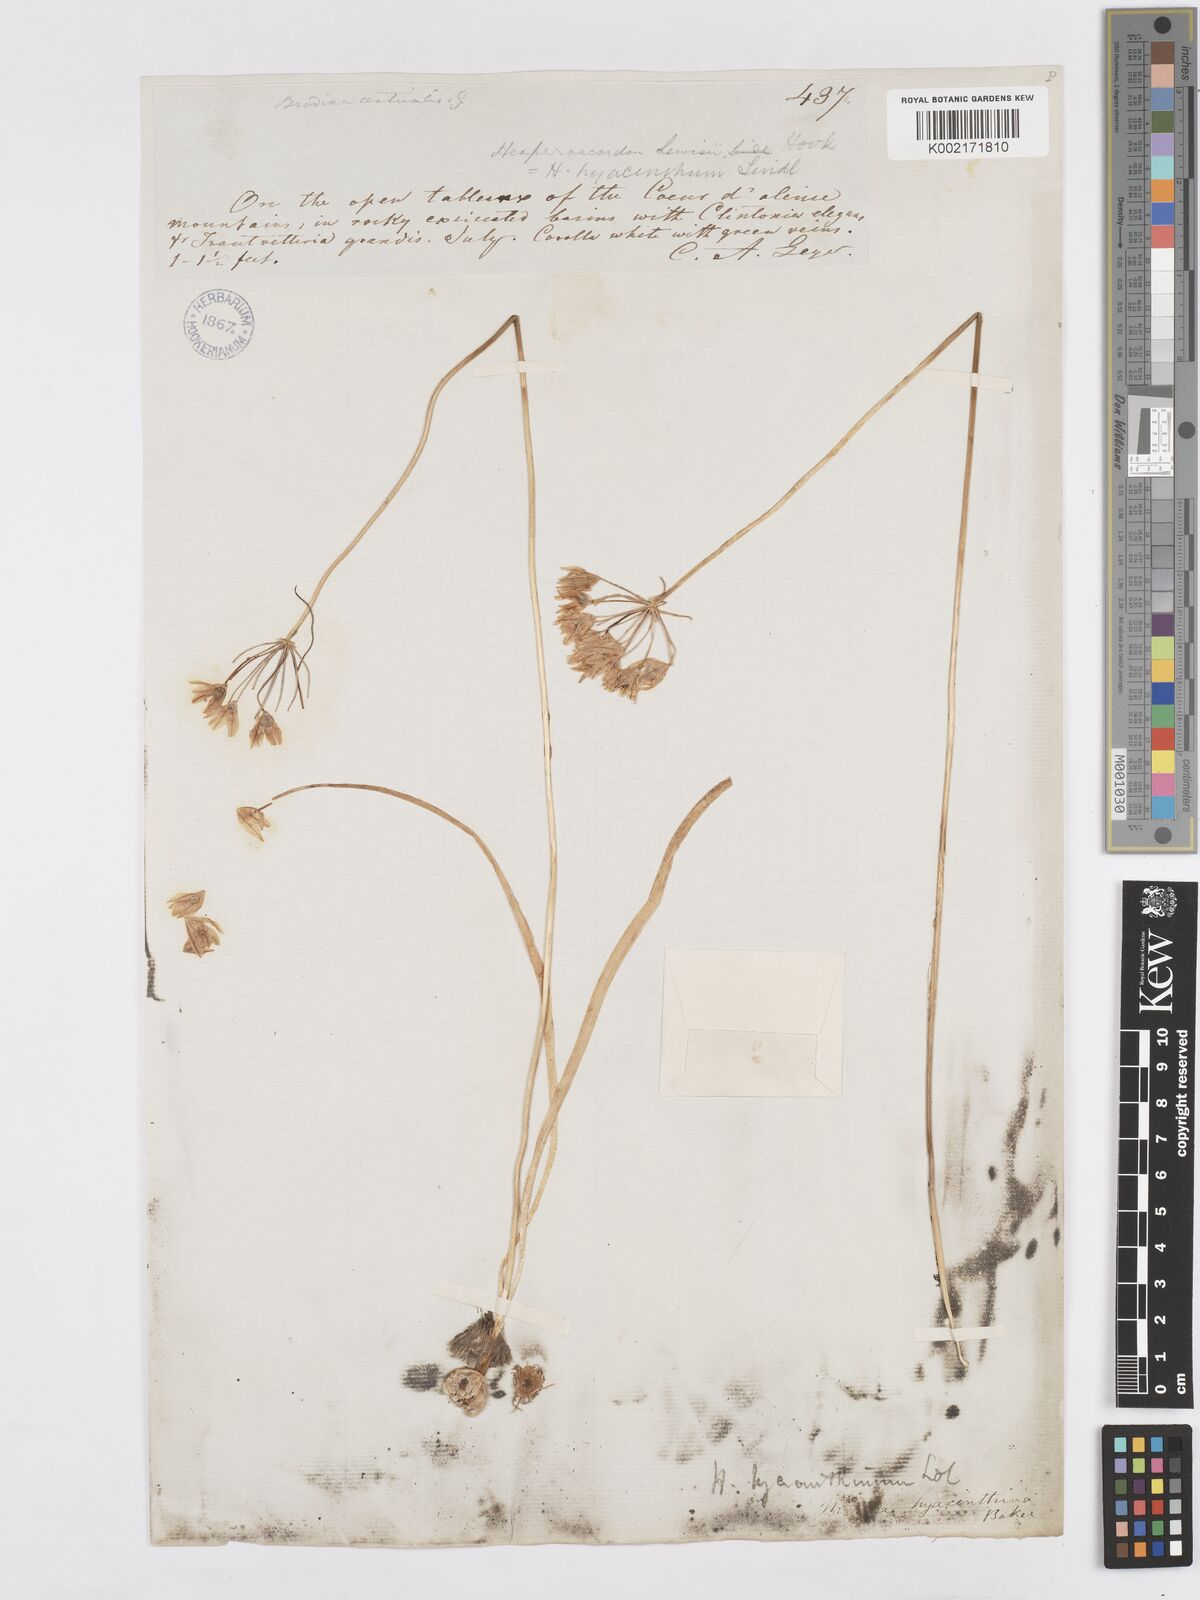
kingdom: Plantae
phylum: Tracheophyta
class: Liliopsida
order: Asparagales
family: Asparagaceae
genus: Triteleia
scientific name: Triteleia hyacinthina
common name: White brodiaea
